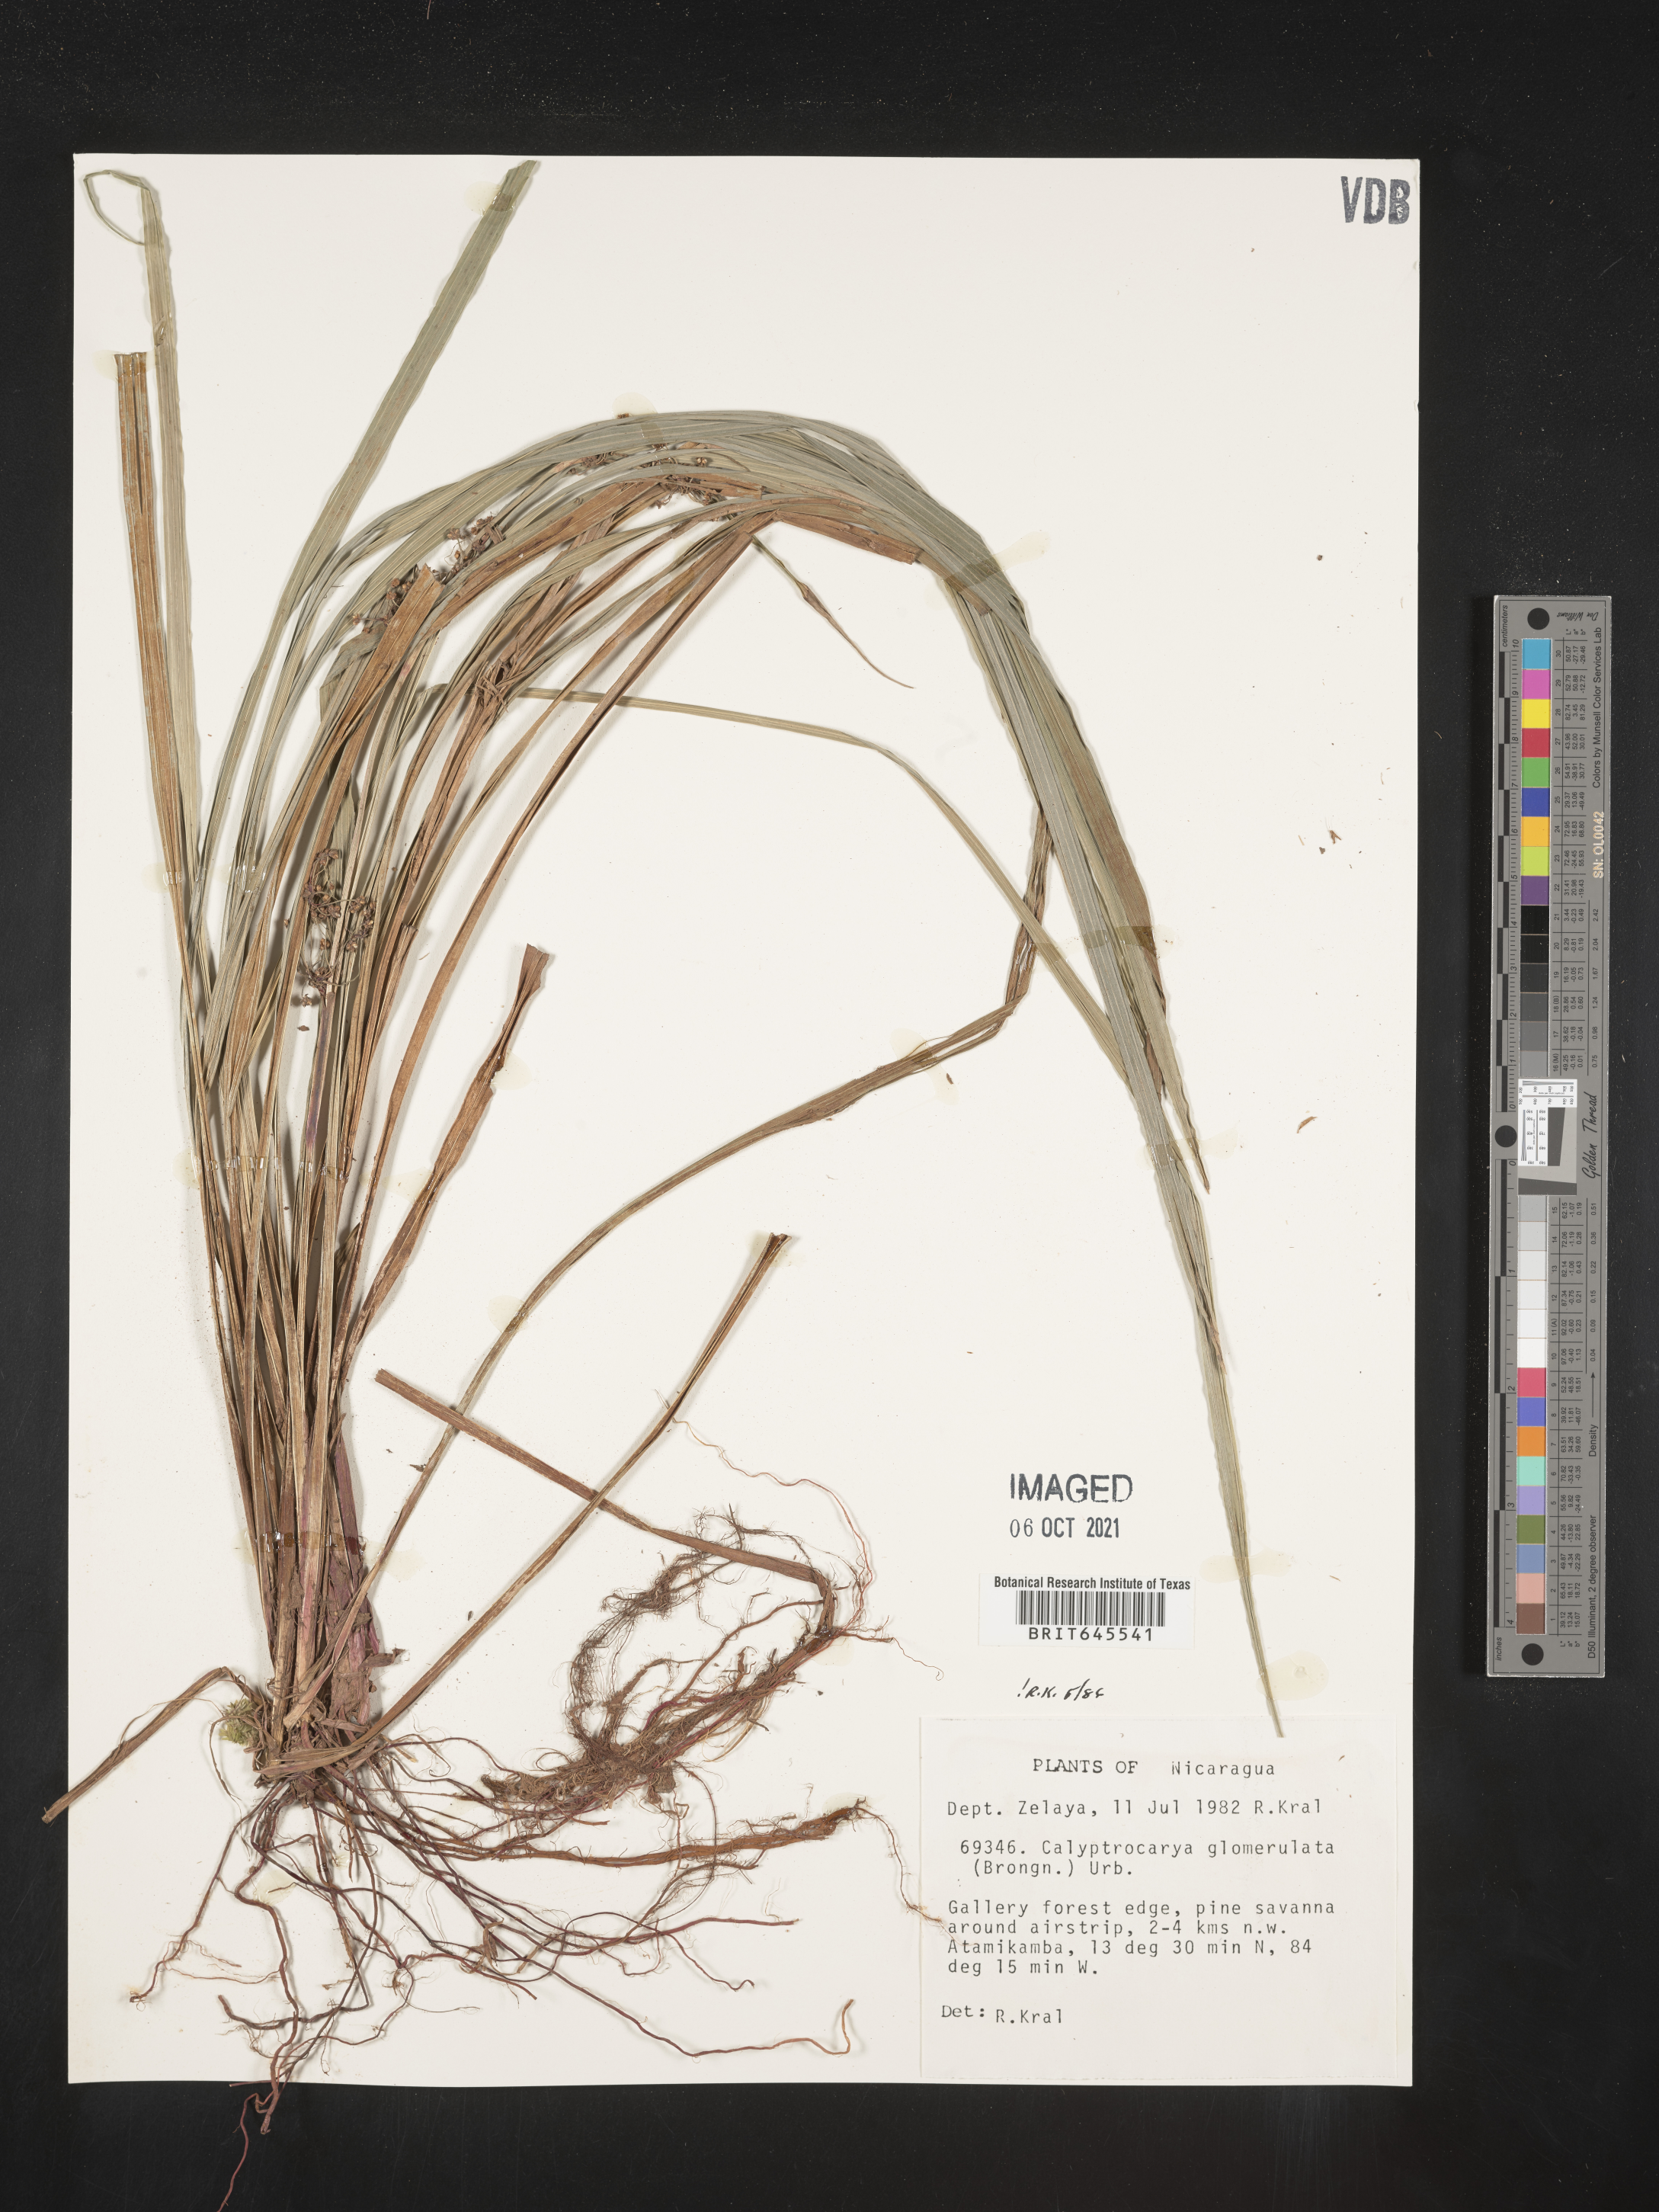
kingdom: Plantae
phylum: Tracheophyta
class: Liliopsida
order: Poales
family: Cyperaceae
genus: Calyptrocarya
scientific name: Calyptrocarya glomerulata
